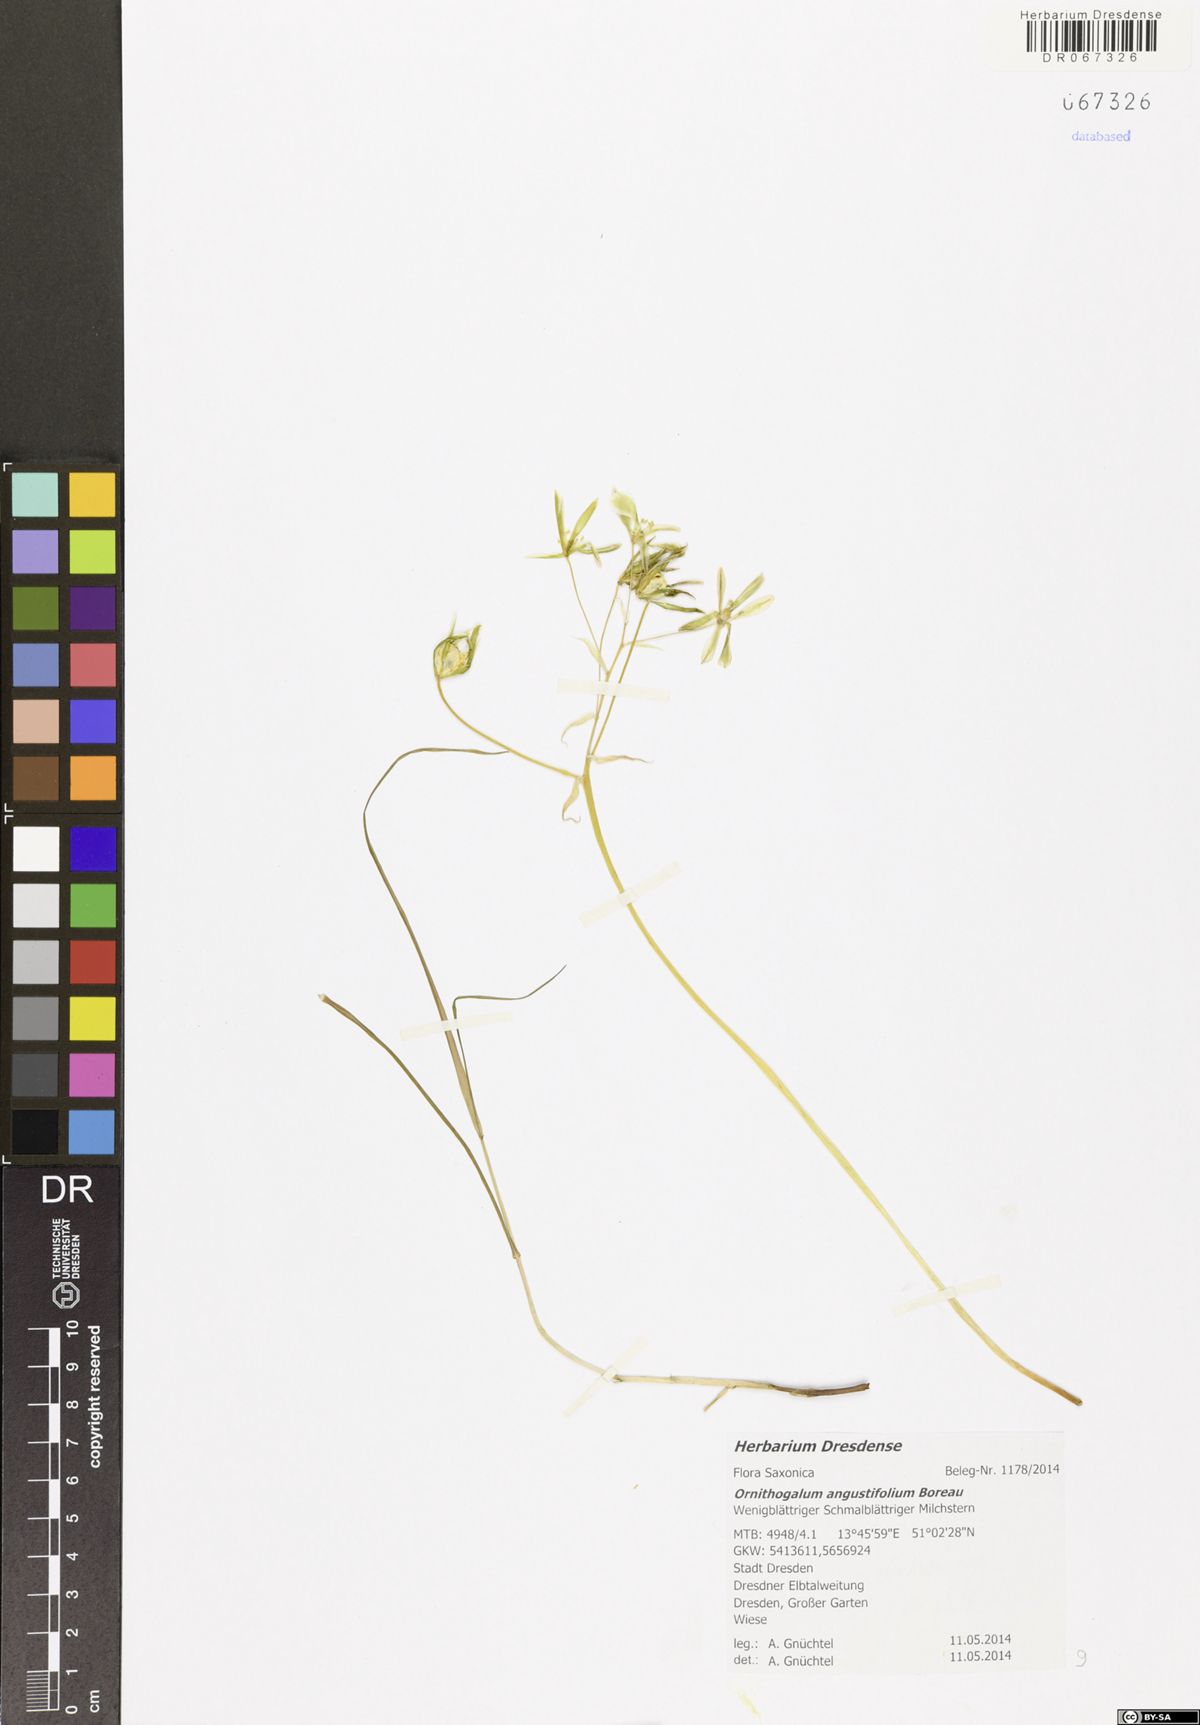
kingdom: Plantae
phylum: Tracheophyta
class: Liliopsida
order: Asparagales
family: Asparagaceae
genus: Ornithogalum
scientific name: Ornithogalum umbellatum
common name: Garden star-of-bethlehem
